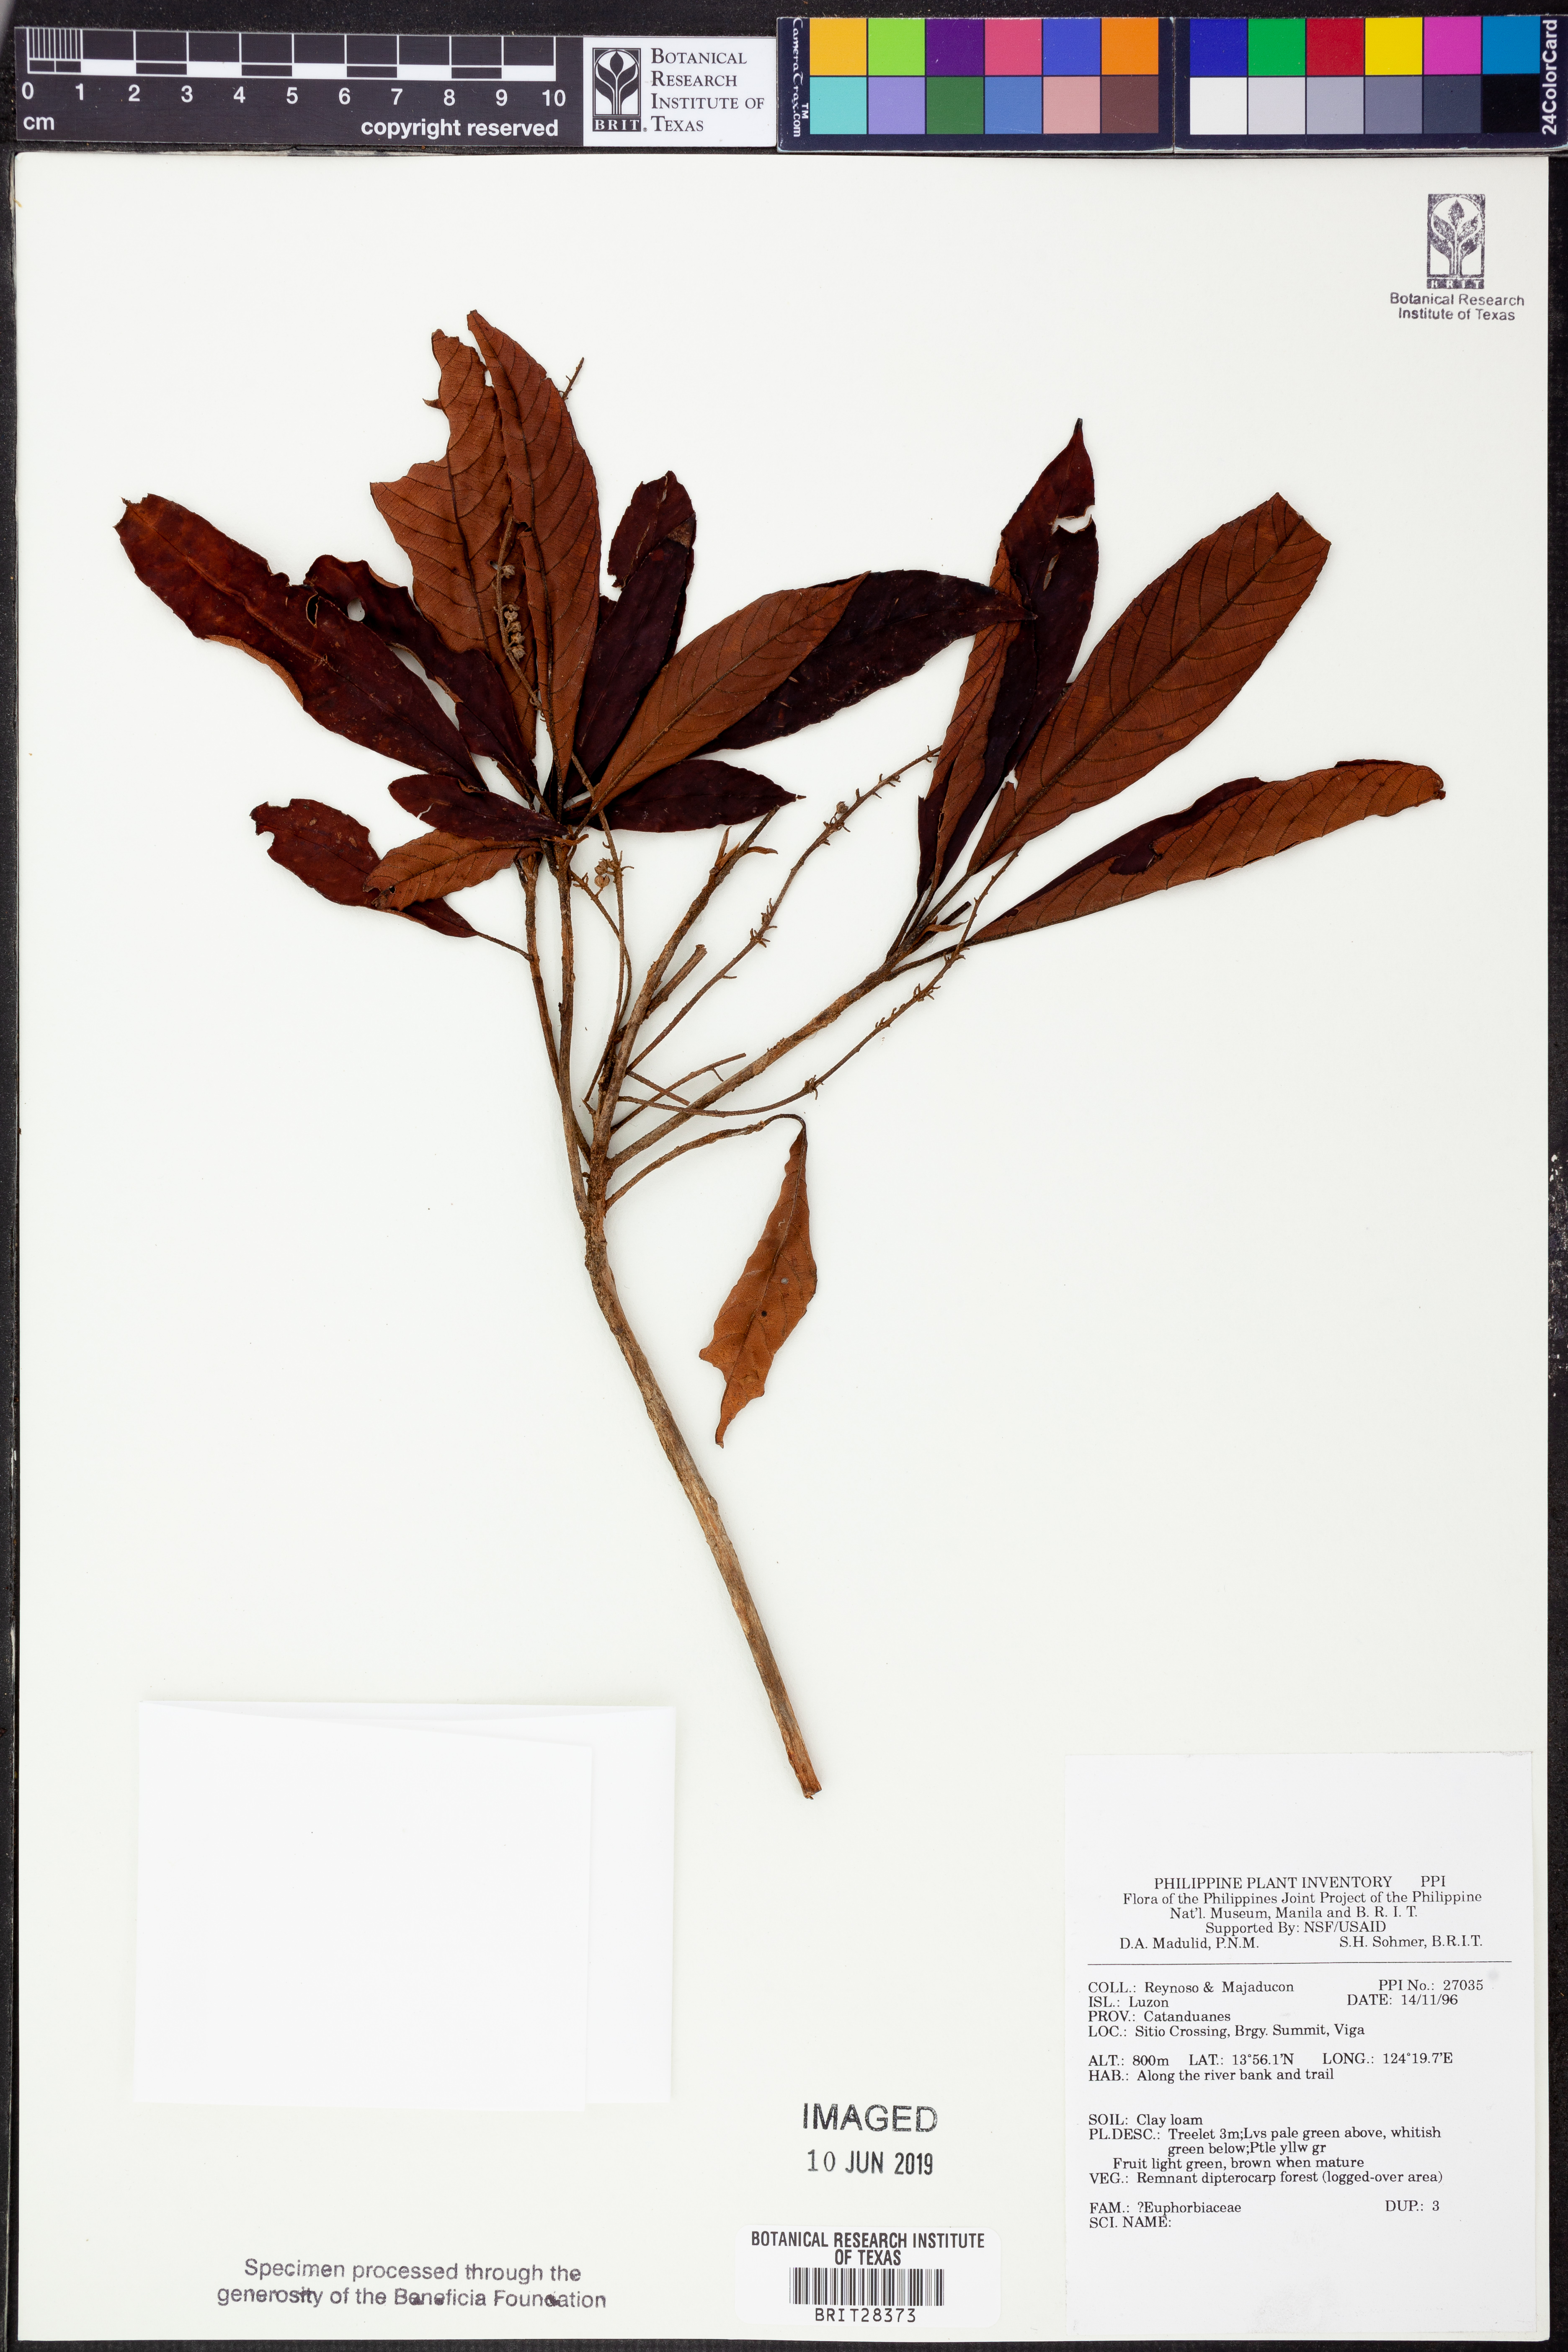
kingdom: Plantae
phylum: Tracheophyta
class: Magnoliopsida
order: Malpighiales
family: Euphorbiaceae
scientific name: Euphorbiaceae
